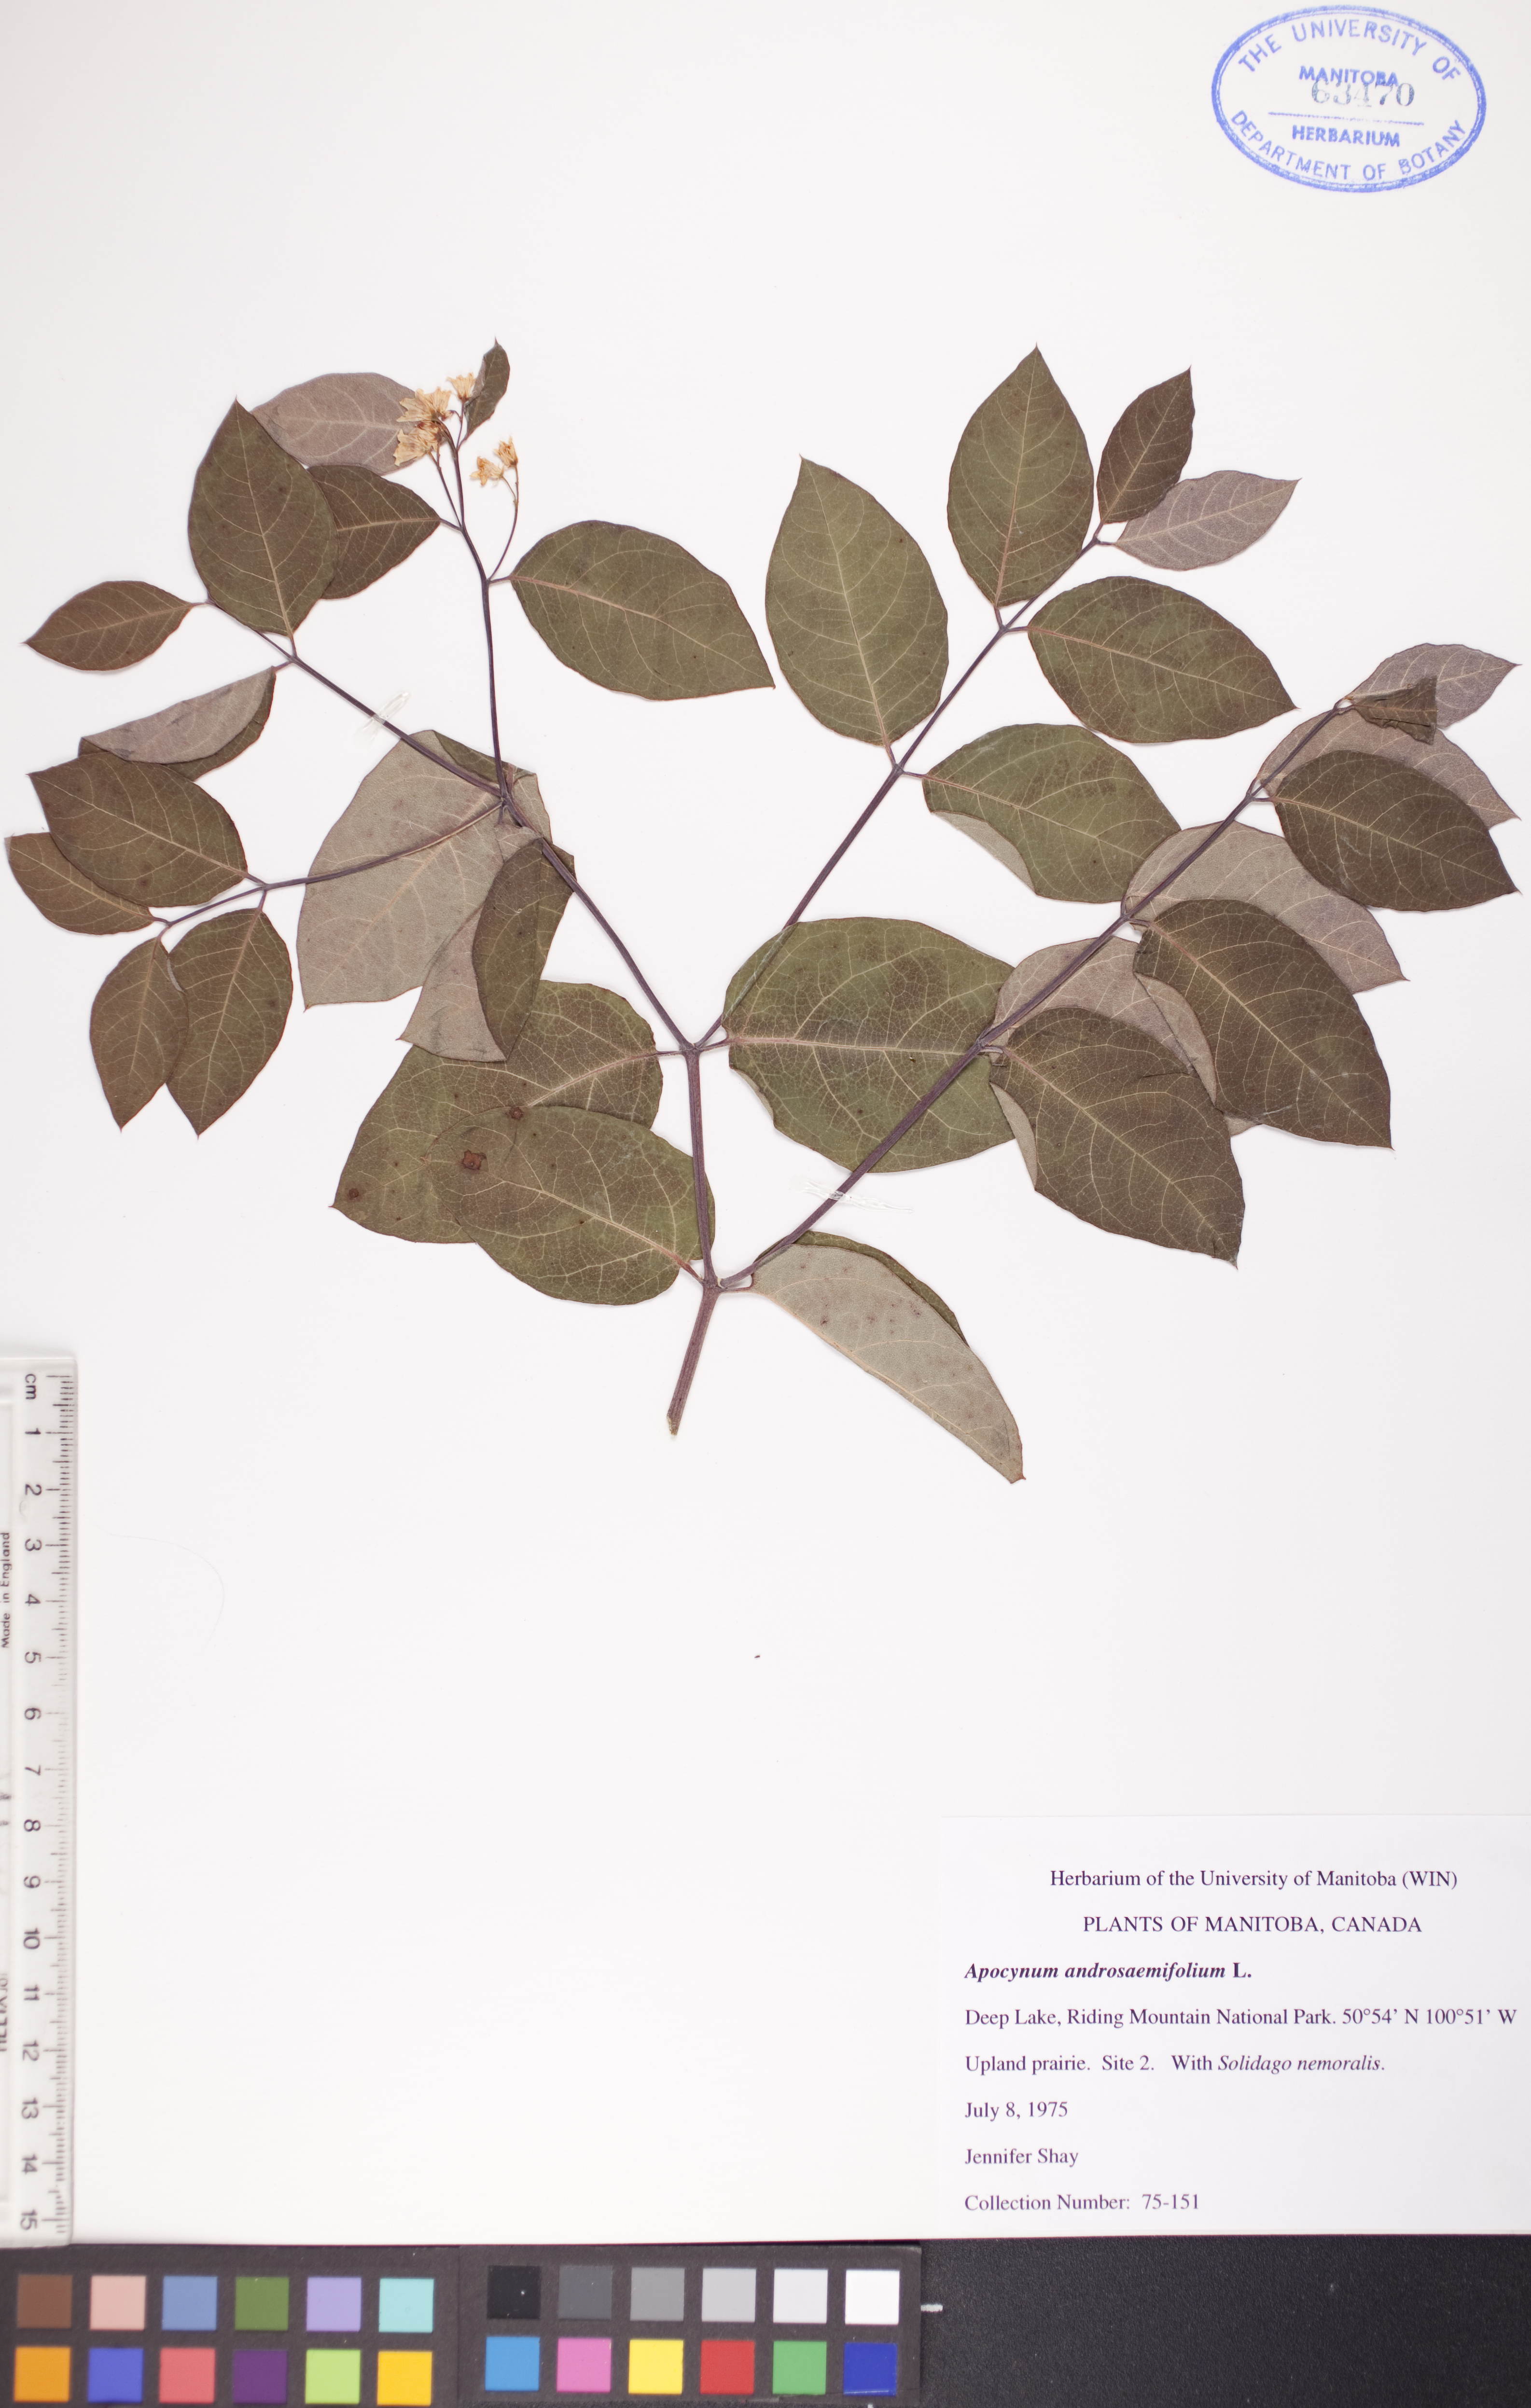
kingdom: Plantae
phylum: Tracheophyta
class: Magnoliopsida
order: Gentianales
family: Apocynaceae
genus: Apocynum
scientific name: Apocynum androsaemifolium
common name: Spreading dogbane
